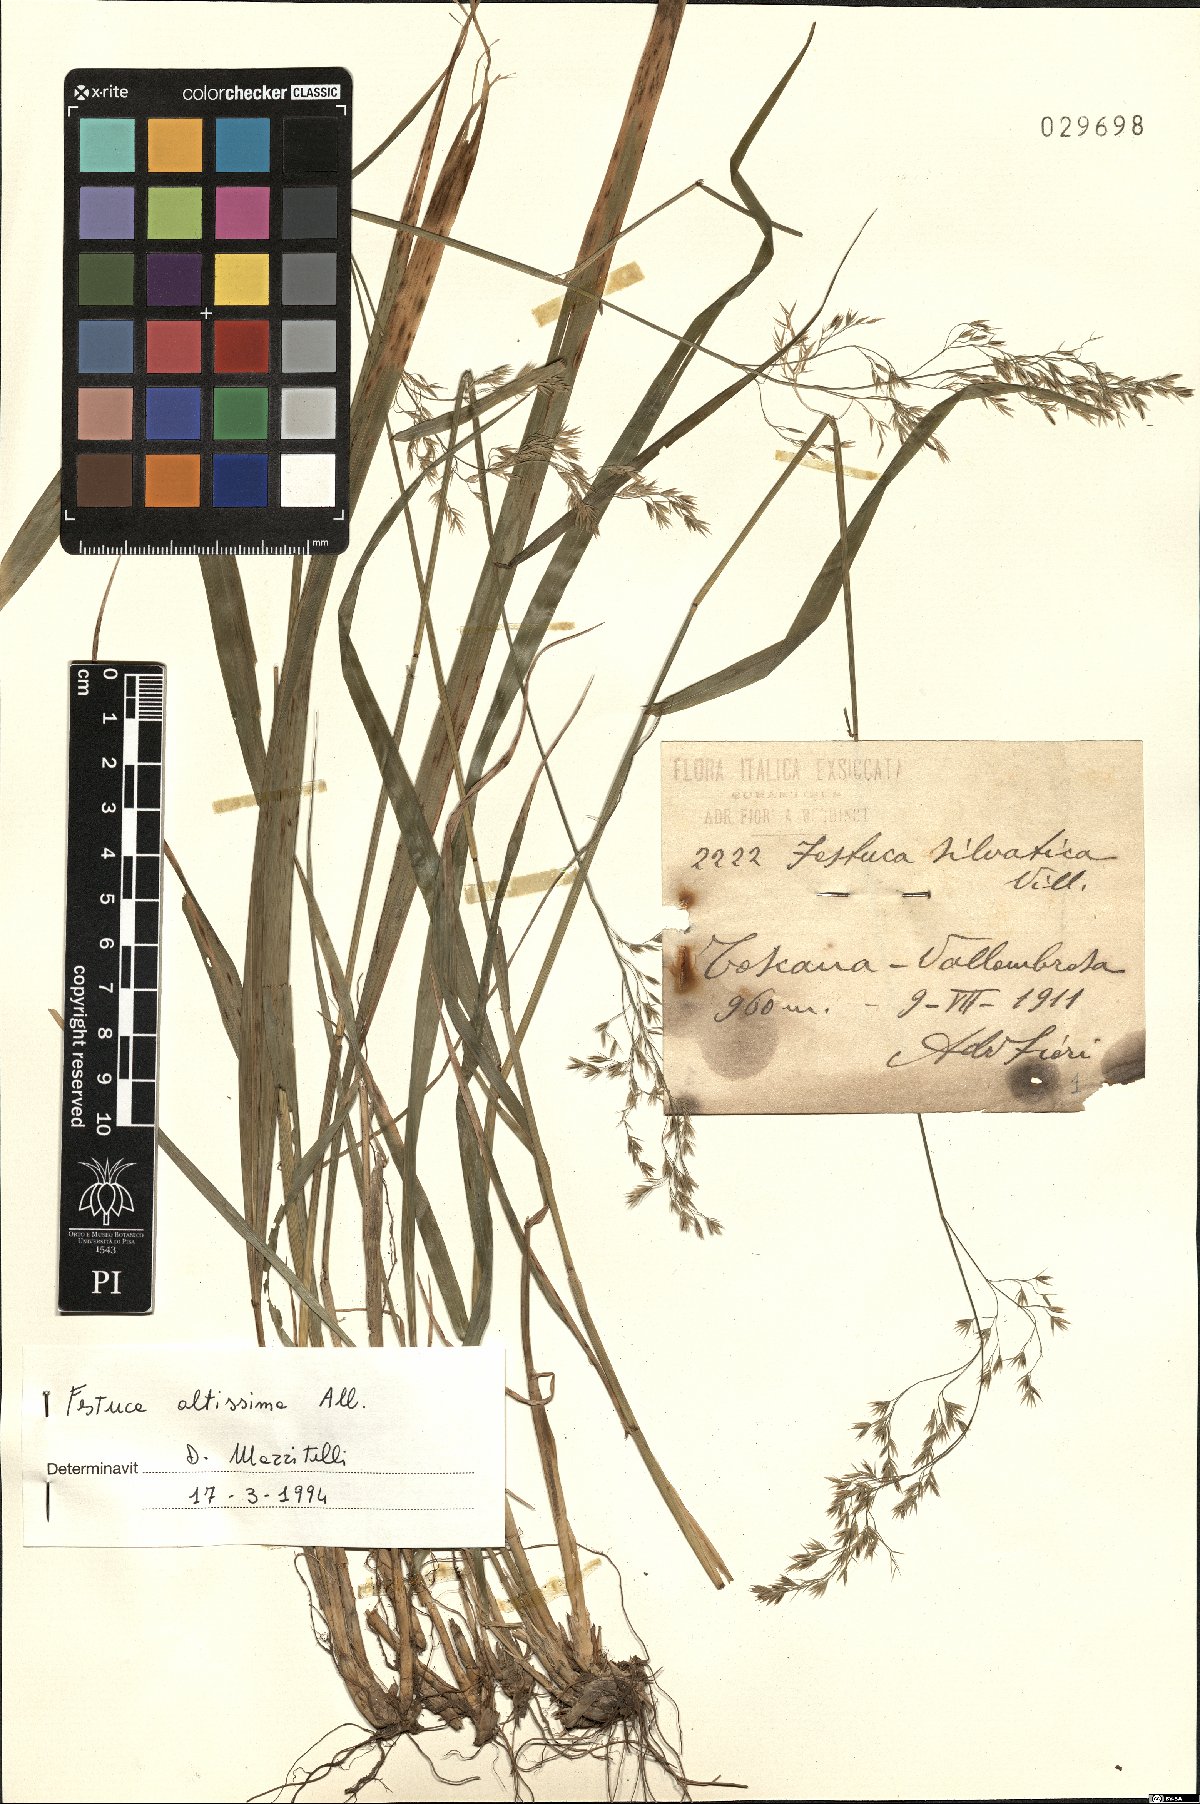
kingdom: Plantae
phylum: Tracheophyta
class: Liliopsida
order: Poales
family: Poaceae
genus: Festuca
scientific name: Festuca altissima
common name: Wood fescue
